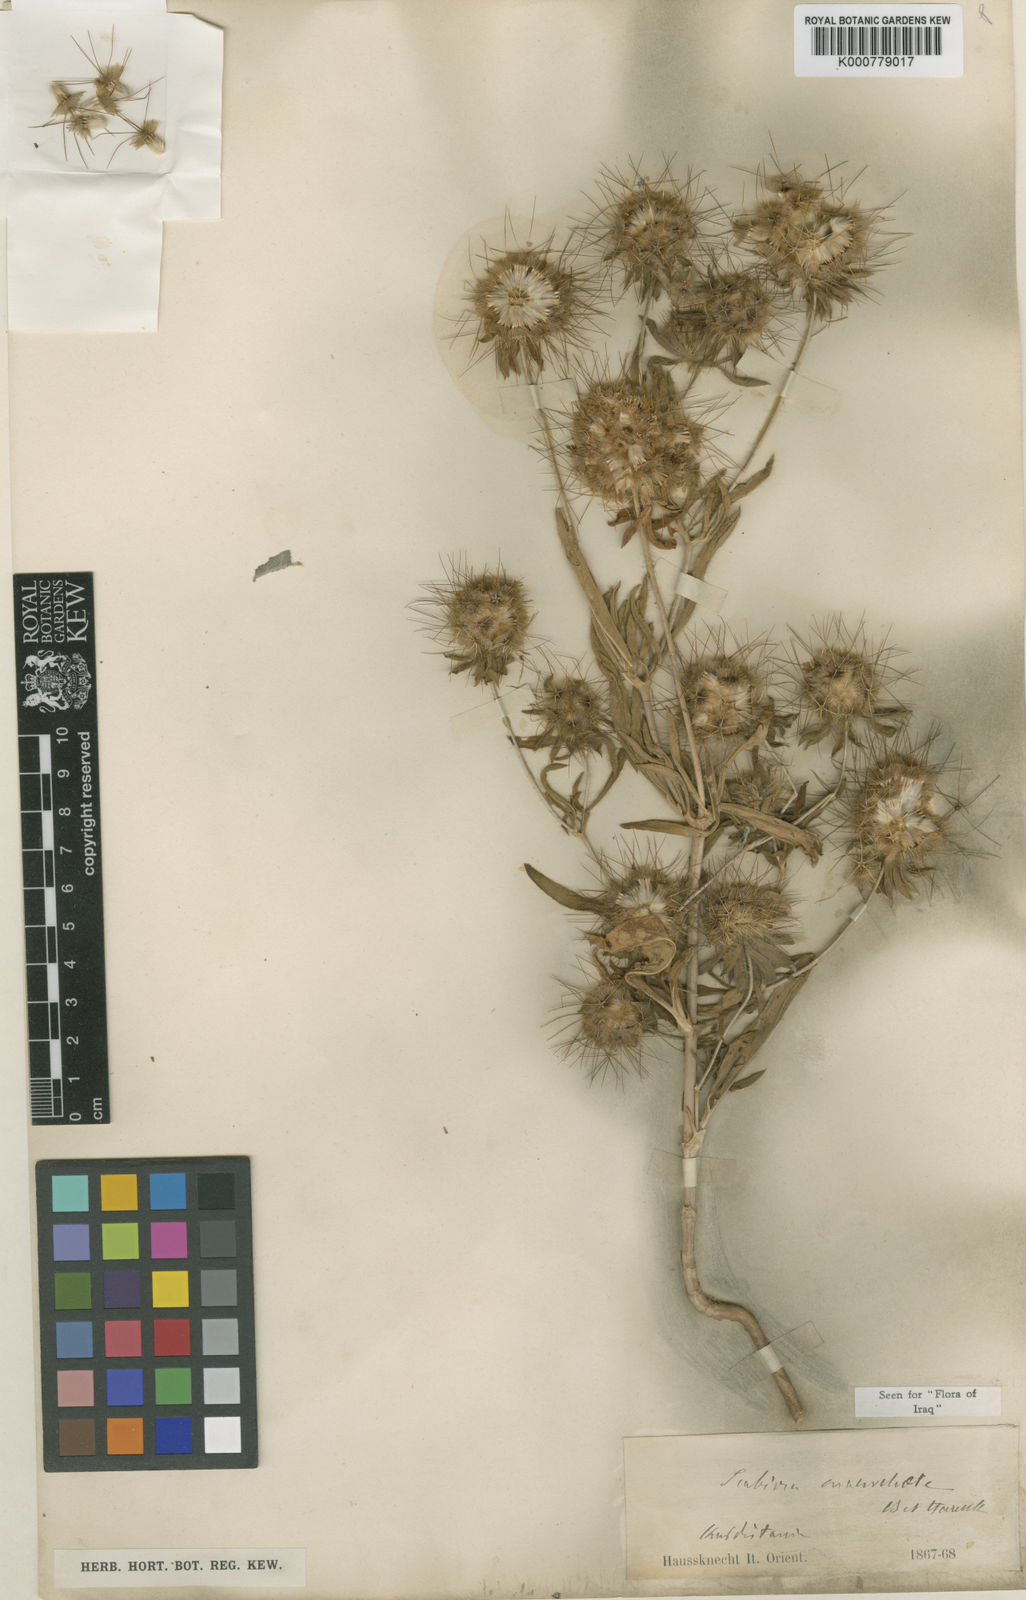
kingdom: Plantae
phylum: Tracheophyta
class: Magnoliopsida
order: Dipsacales
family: Caprifoliaceae
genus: Lomelosia
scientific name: Lomelosia macrochaete
